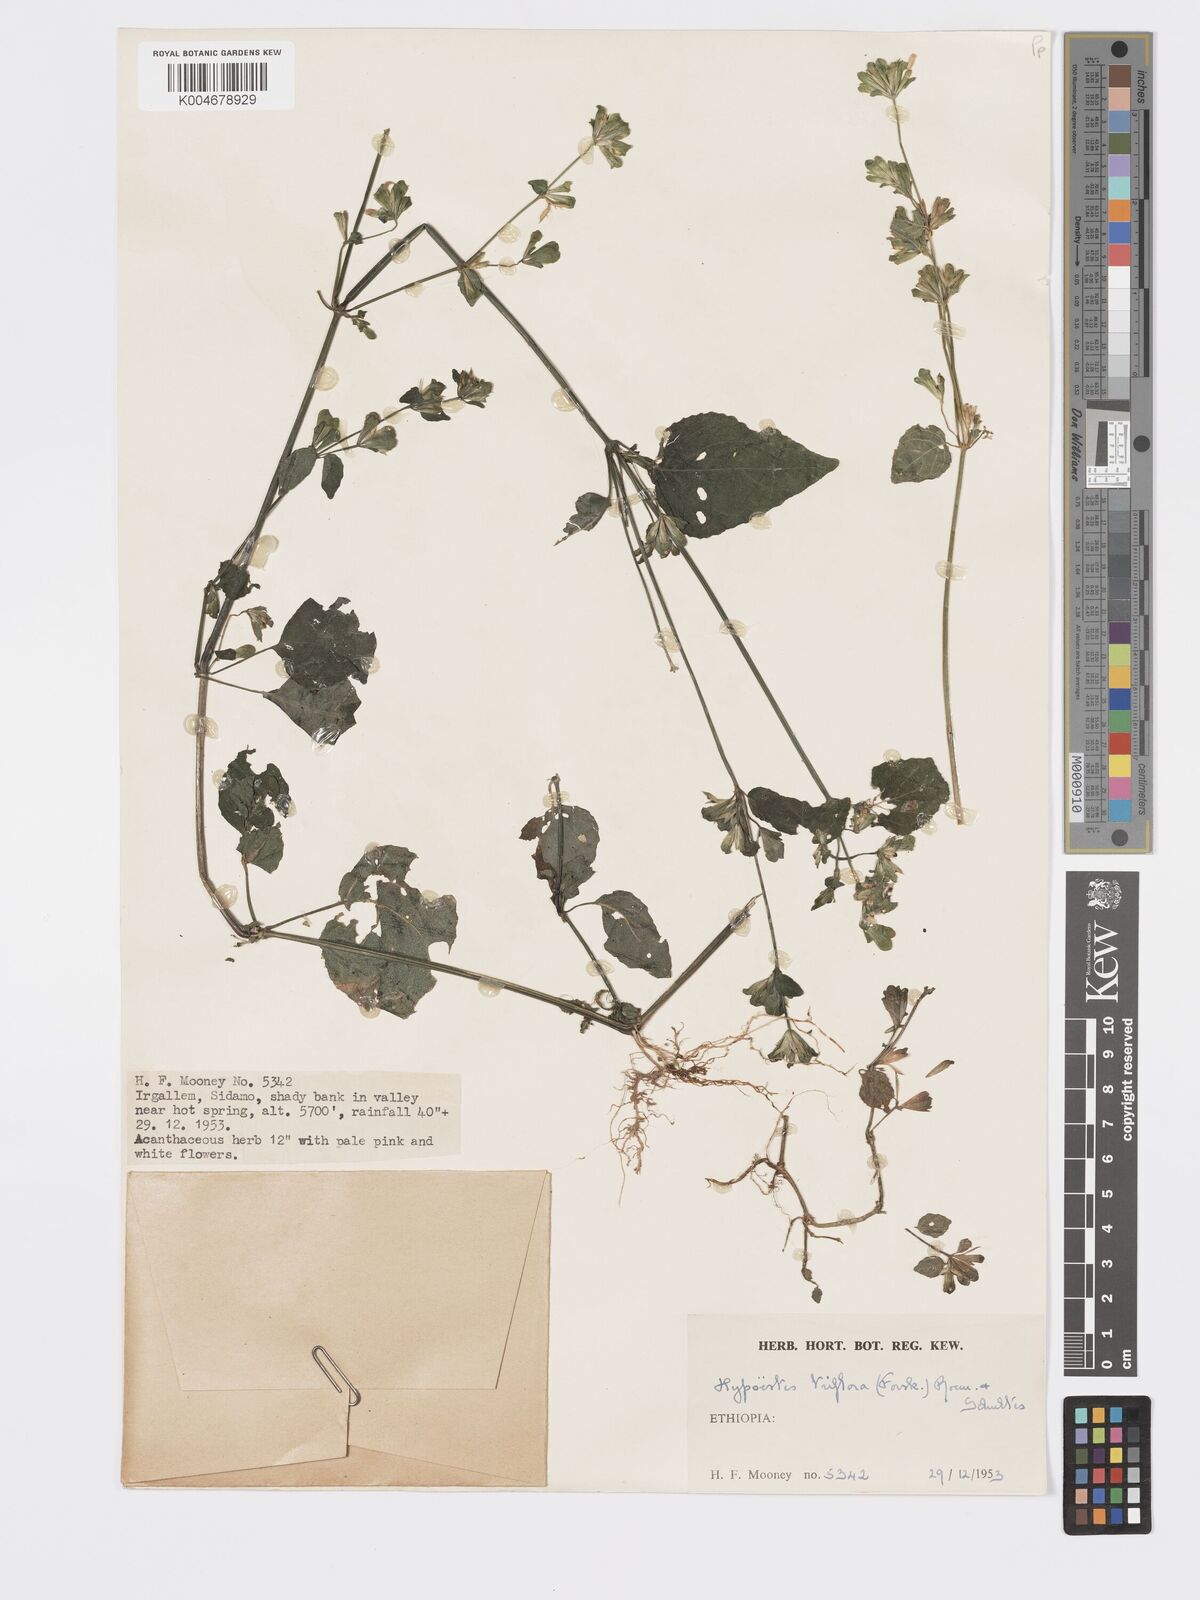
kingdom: Plantae
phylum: Tracheophyta
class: Magnoliopsida
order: Lamiales
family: Acanthaceae
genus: Hypoestes
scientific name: Hypoestes triflora
